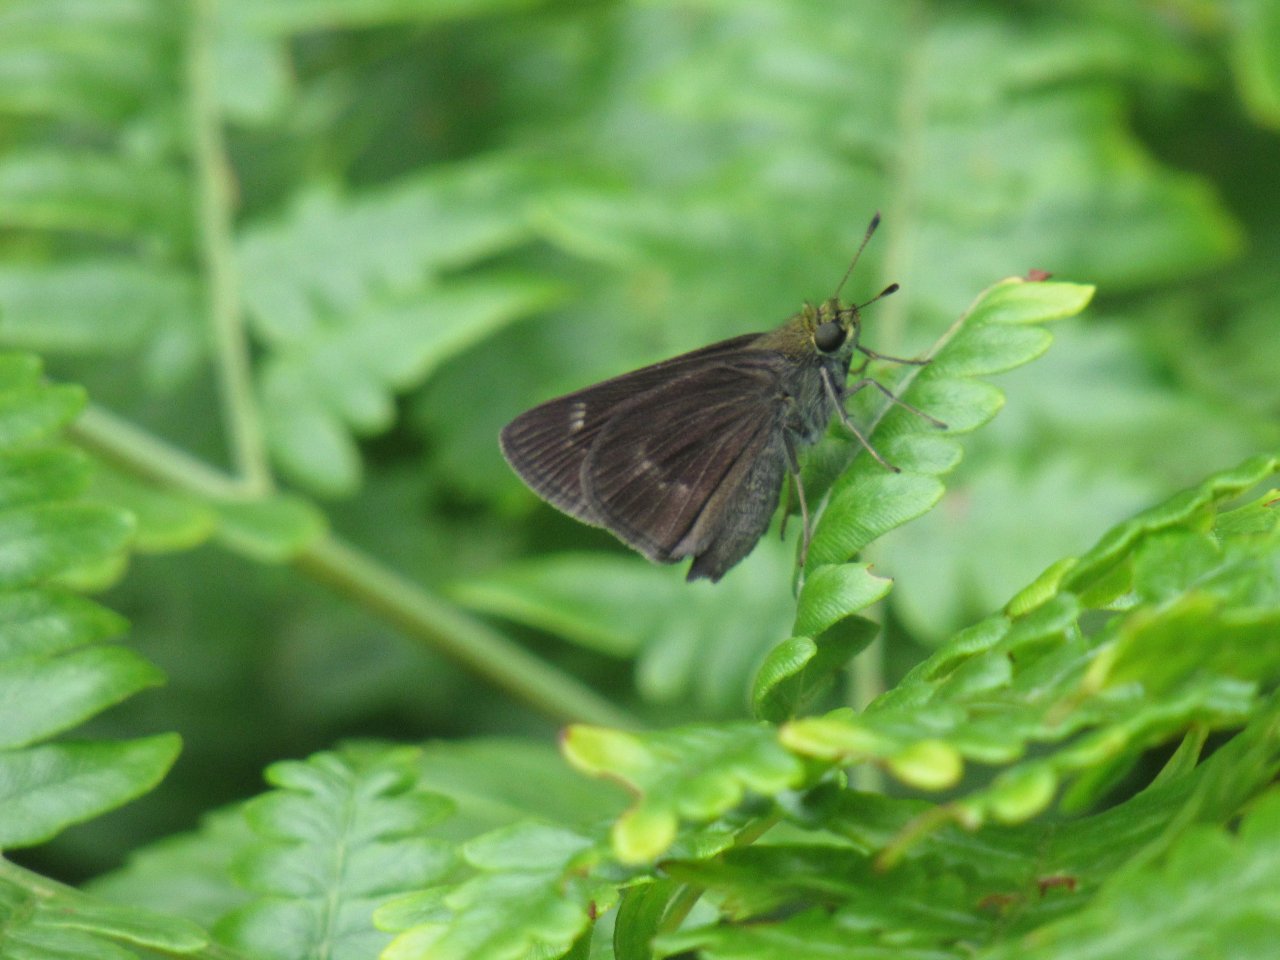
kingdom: Animalia
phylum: Arthropoda
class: Insecta
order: Lepidoptera
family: Hesperiidae
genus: Euphyes
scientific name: Euphyes
